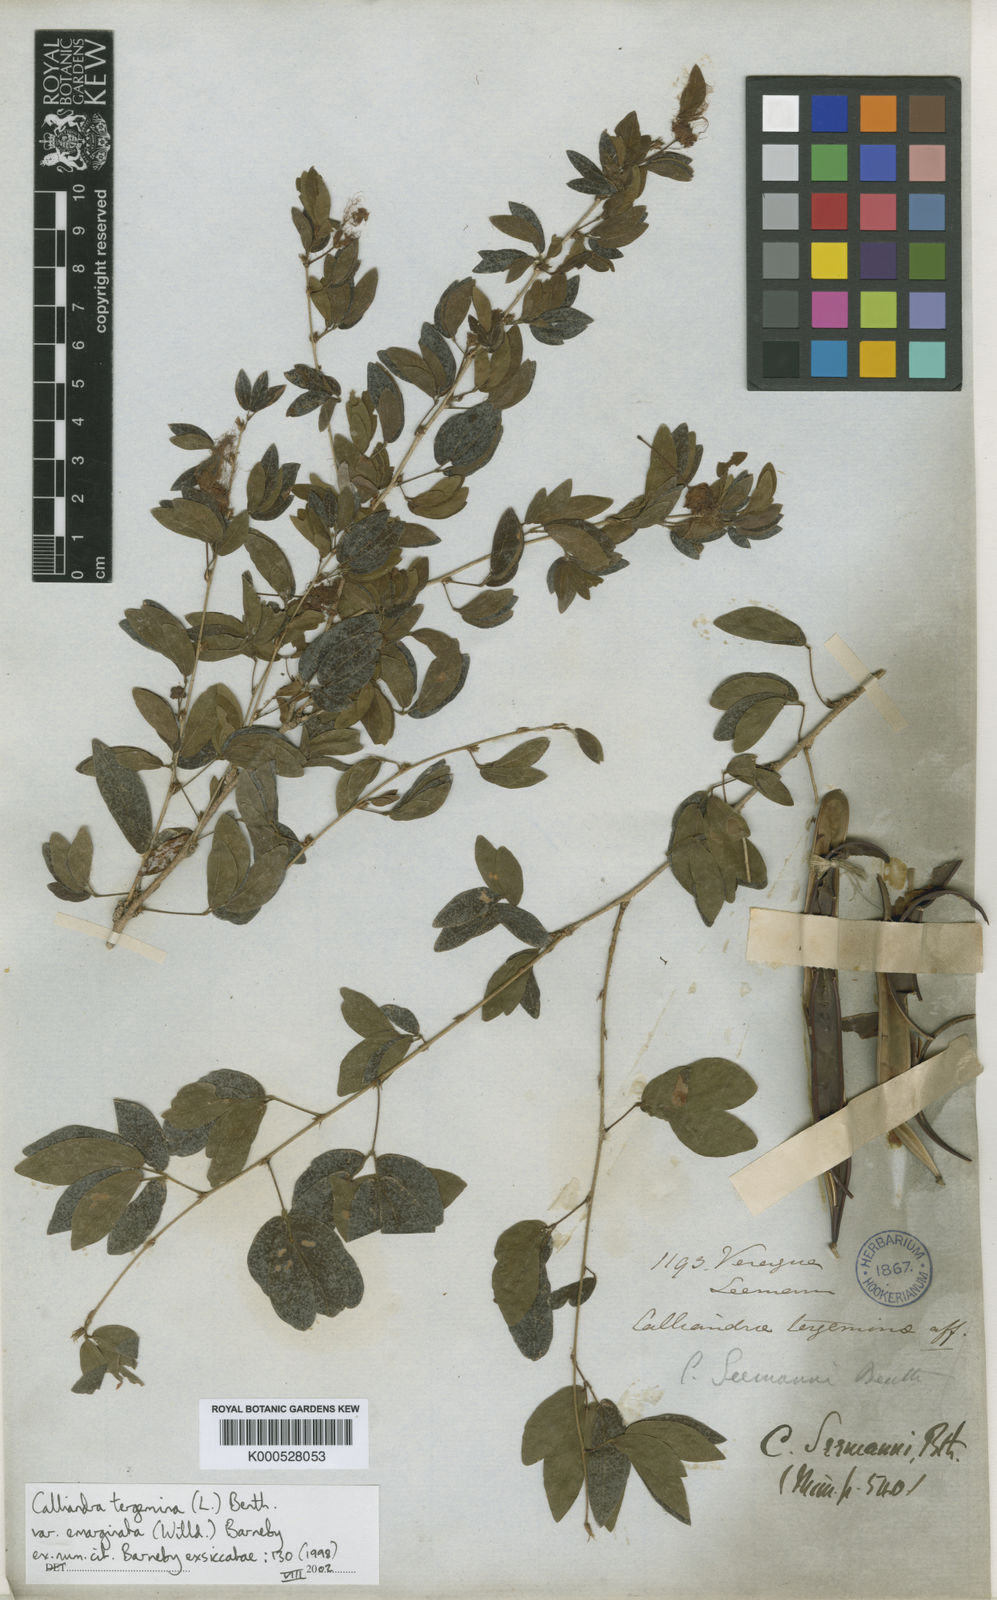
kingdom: Plantae
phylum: Tracheophyta
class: Magnoliopsida
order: Fabales
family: Fabaceae
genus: Calliandra
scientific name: Calliandra tergemina
